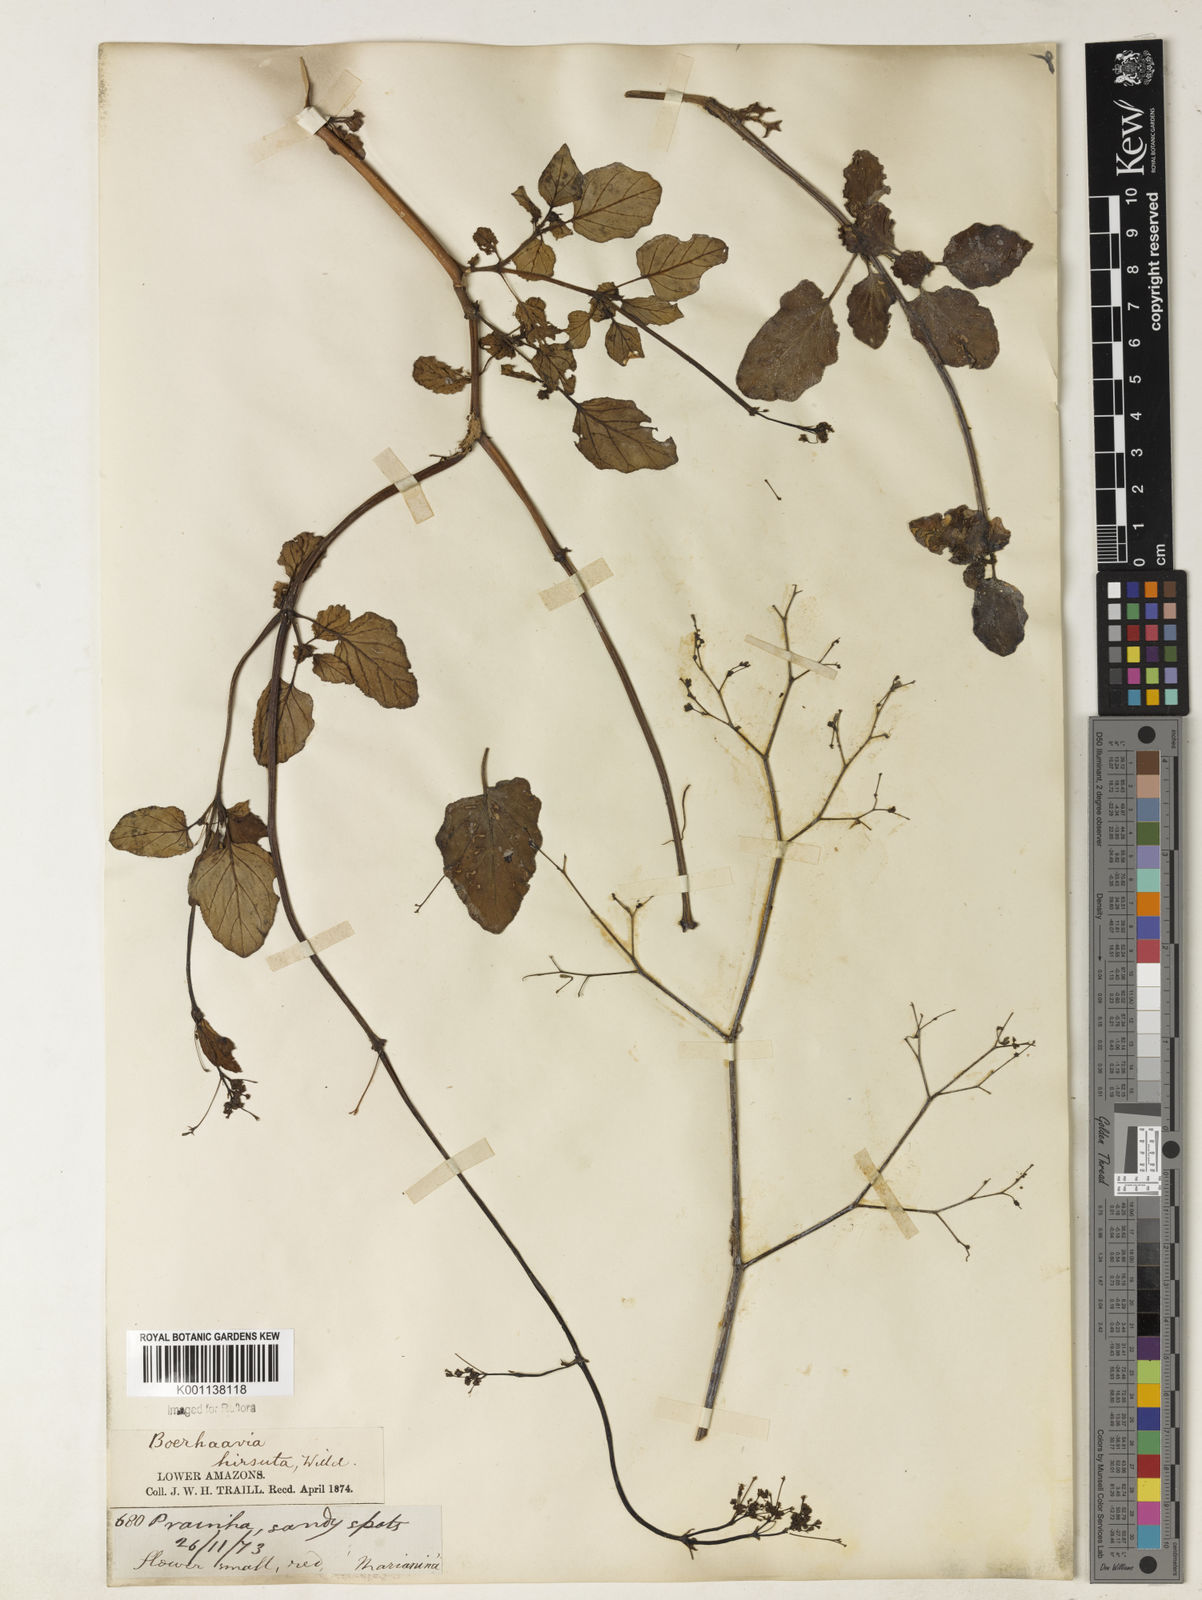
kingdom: Plantae
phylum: Tracheophyta
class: Magnoliopsida
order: Caryophyllales
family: Nyctaginaceae
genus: Boerhavia
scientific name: Boerhavia diffusa
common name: Red spiderling
